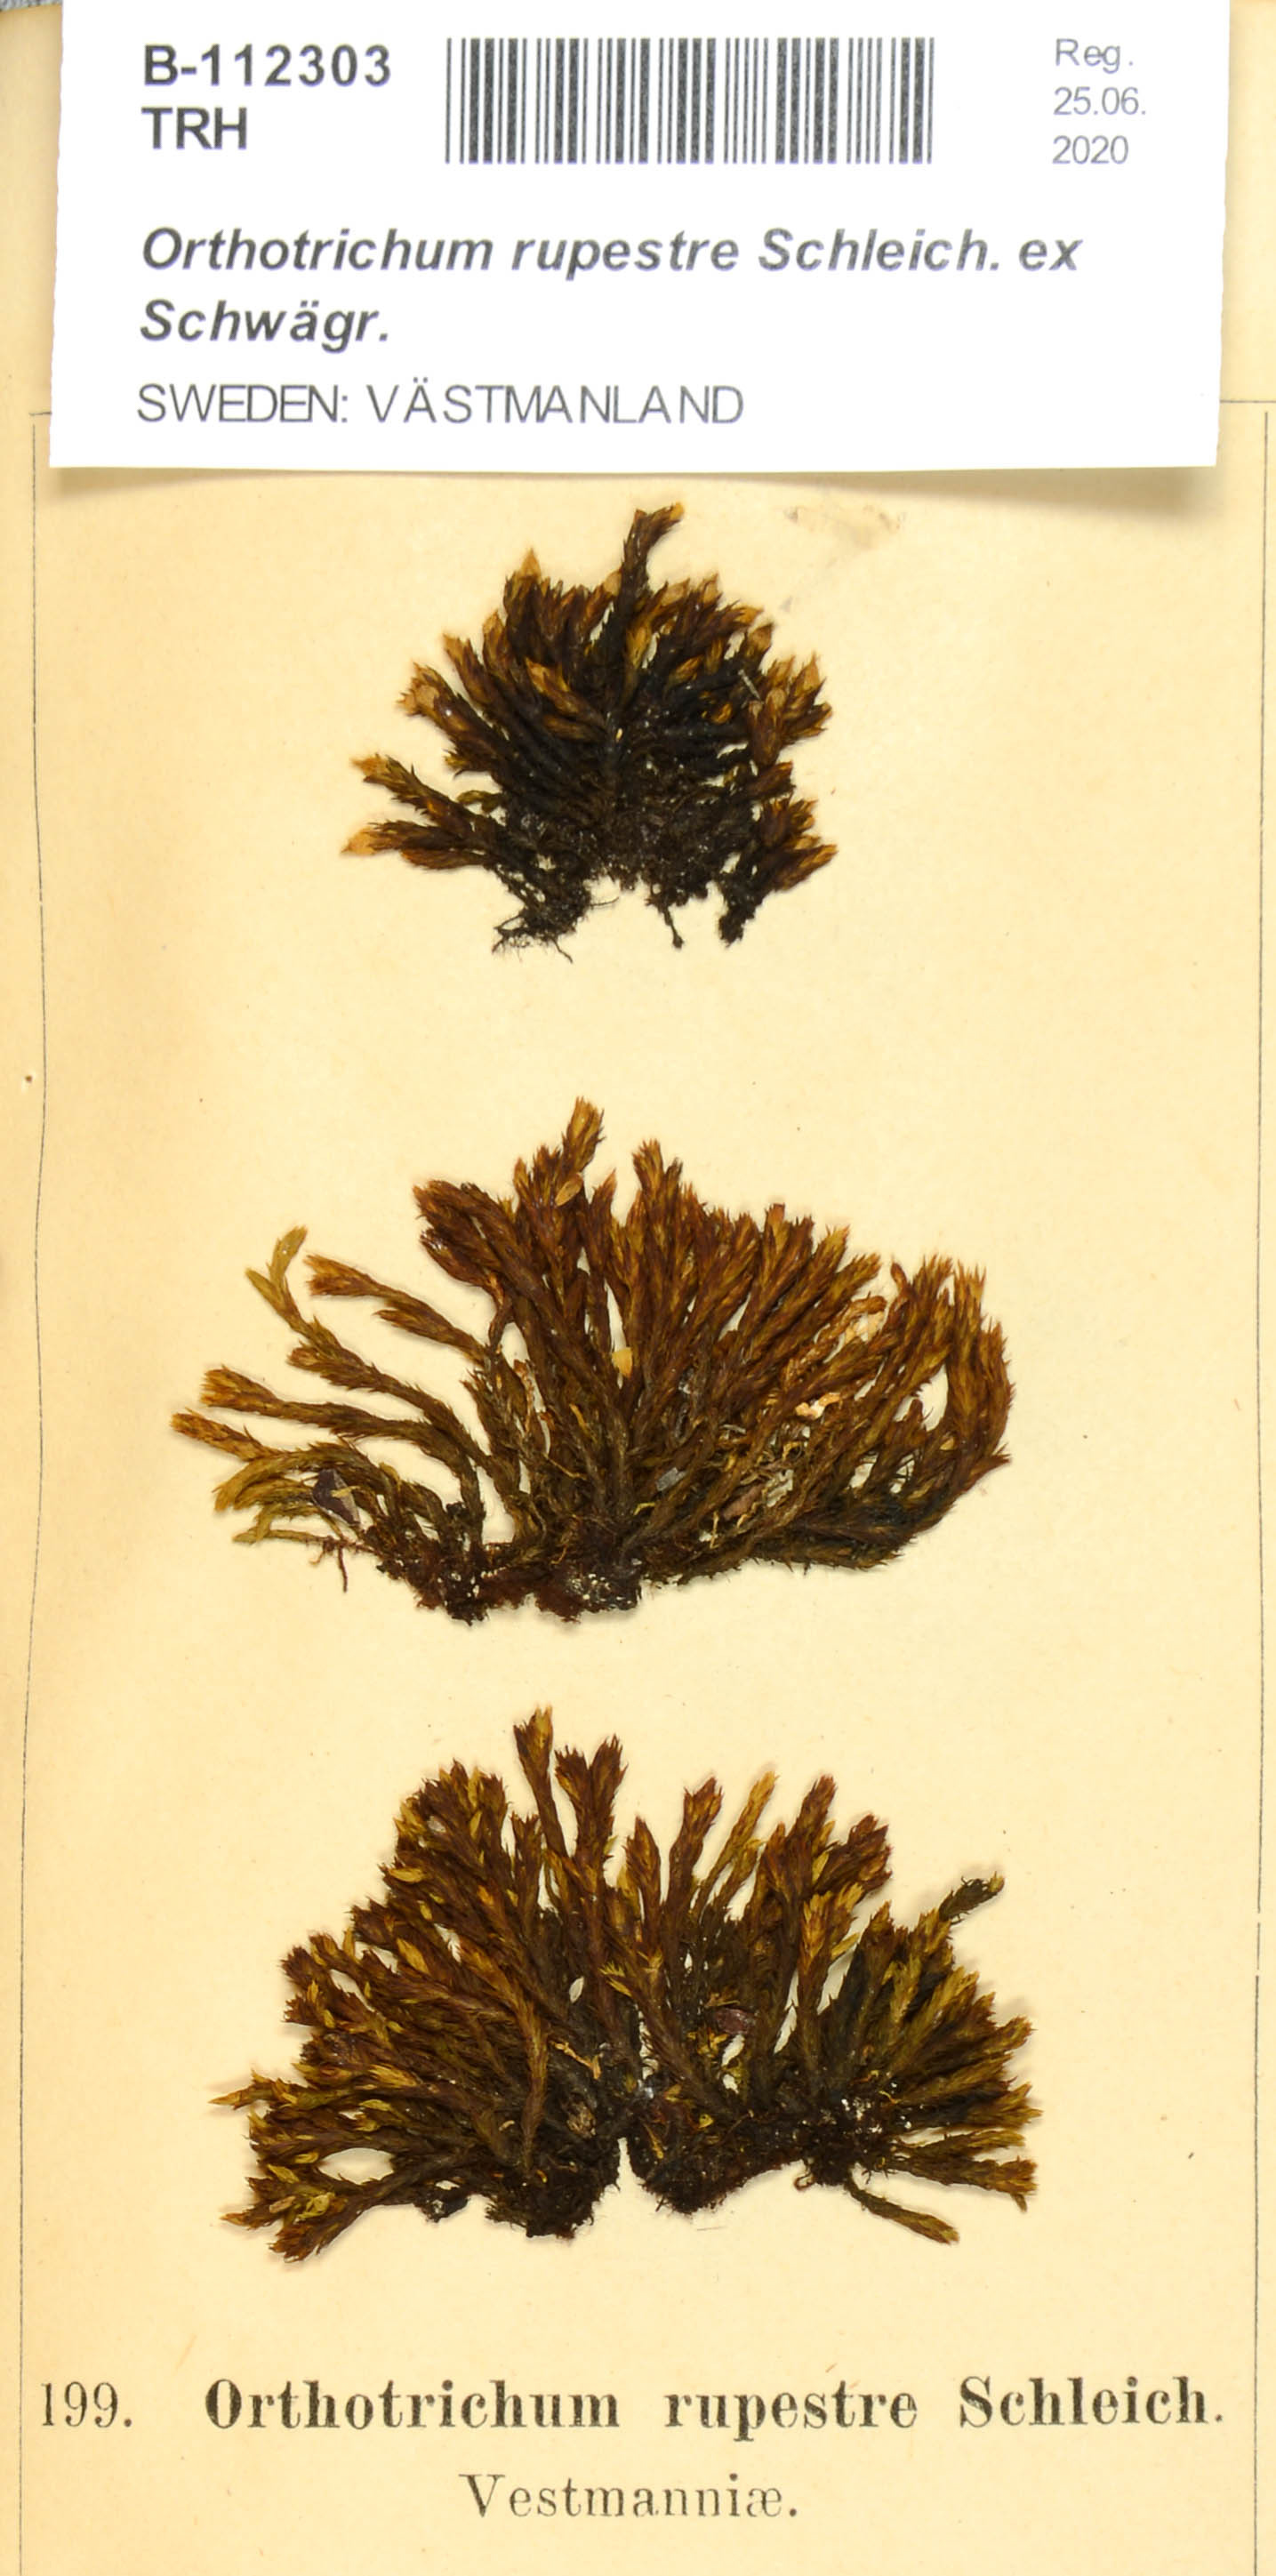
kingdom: Plantae
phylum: Bryophyta
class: Bryopsida
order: Orthotrichales
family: Orthotrichaceae
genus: Lewinskya
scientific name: Lewinskya rupestris
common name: Rock bristle-moss
